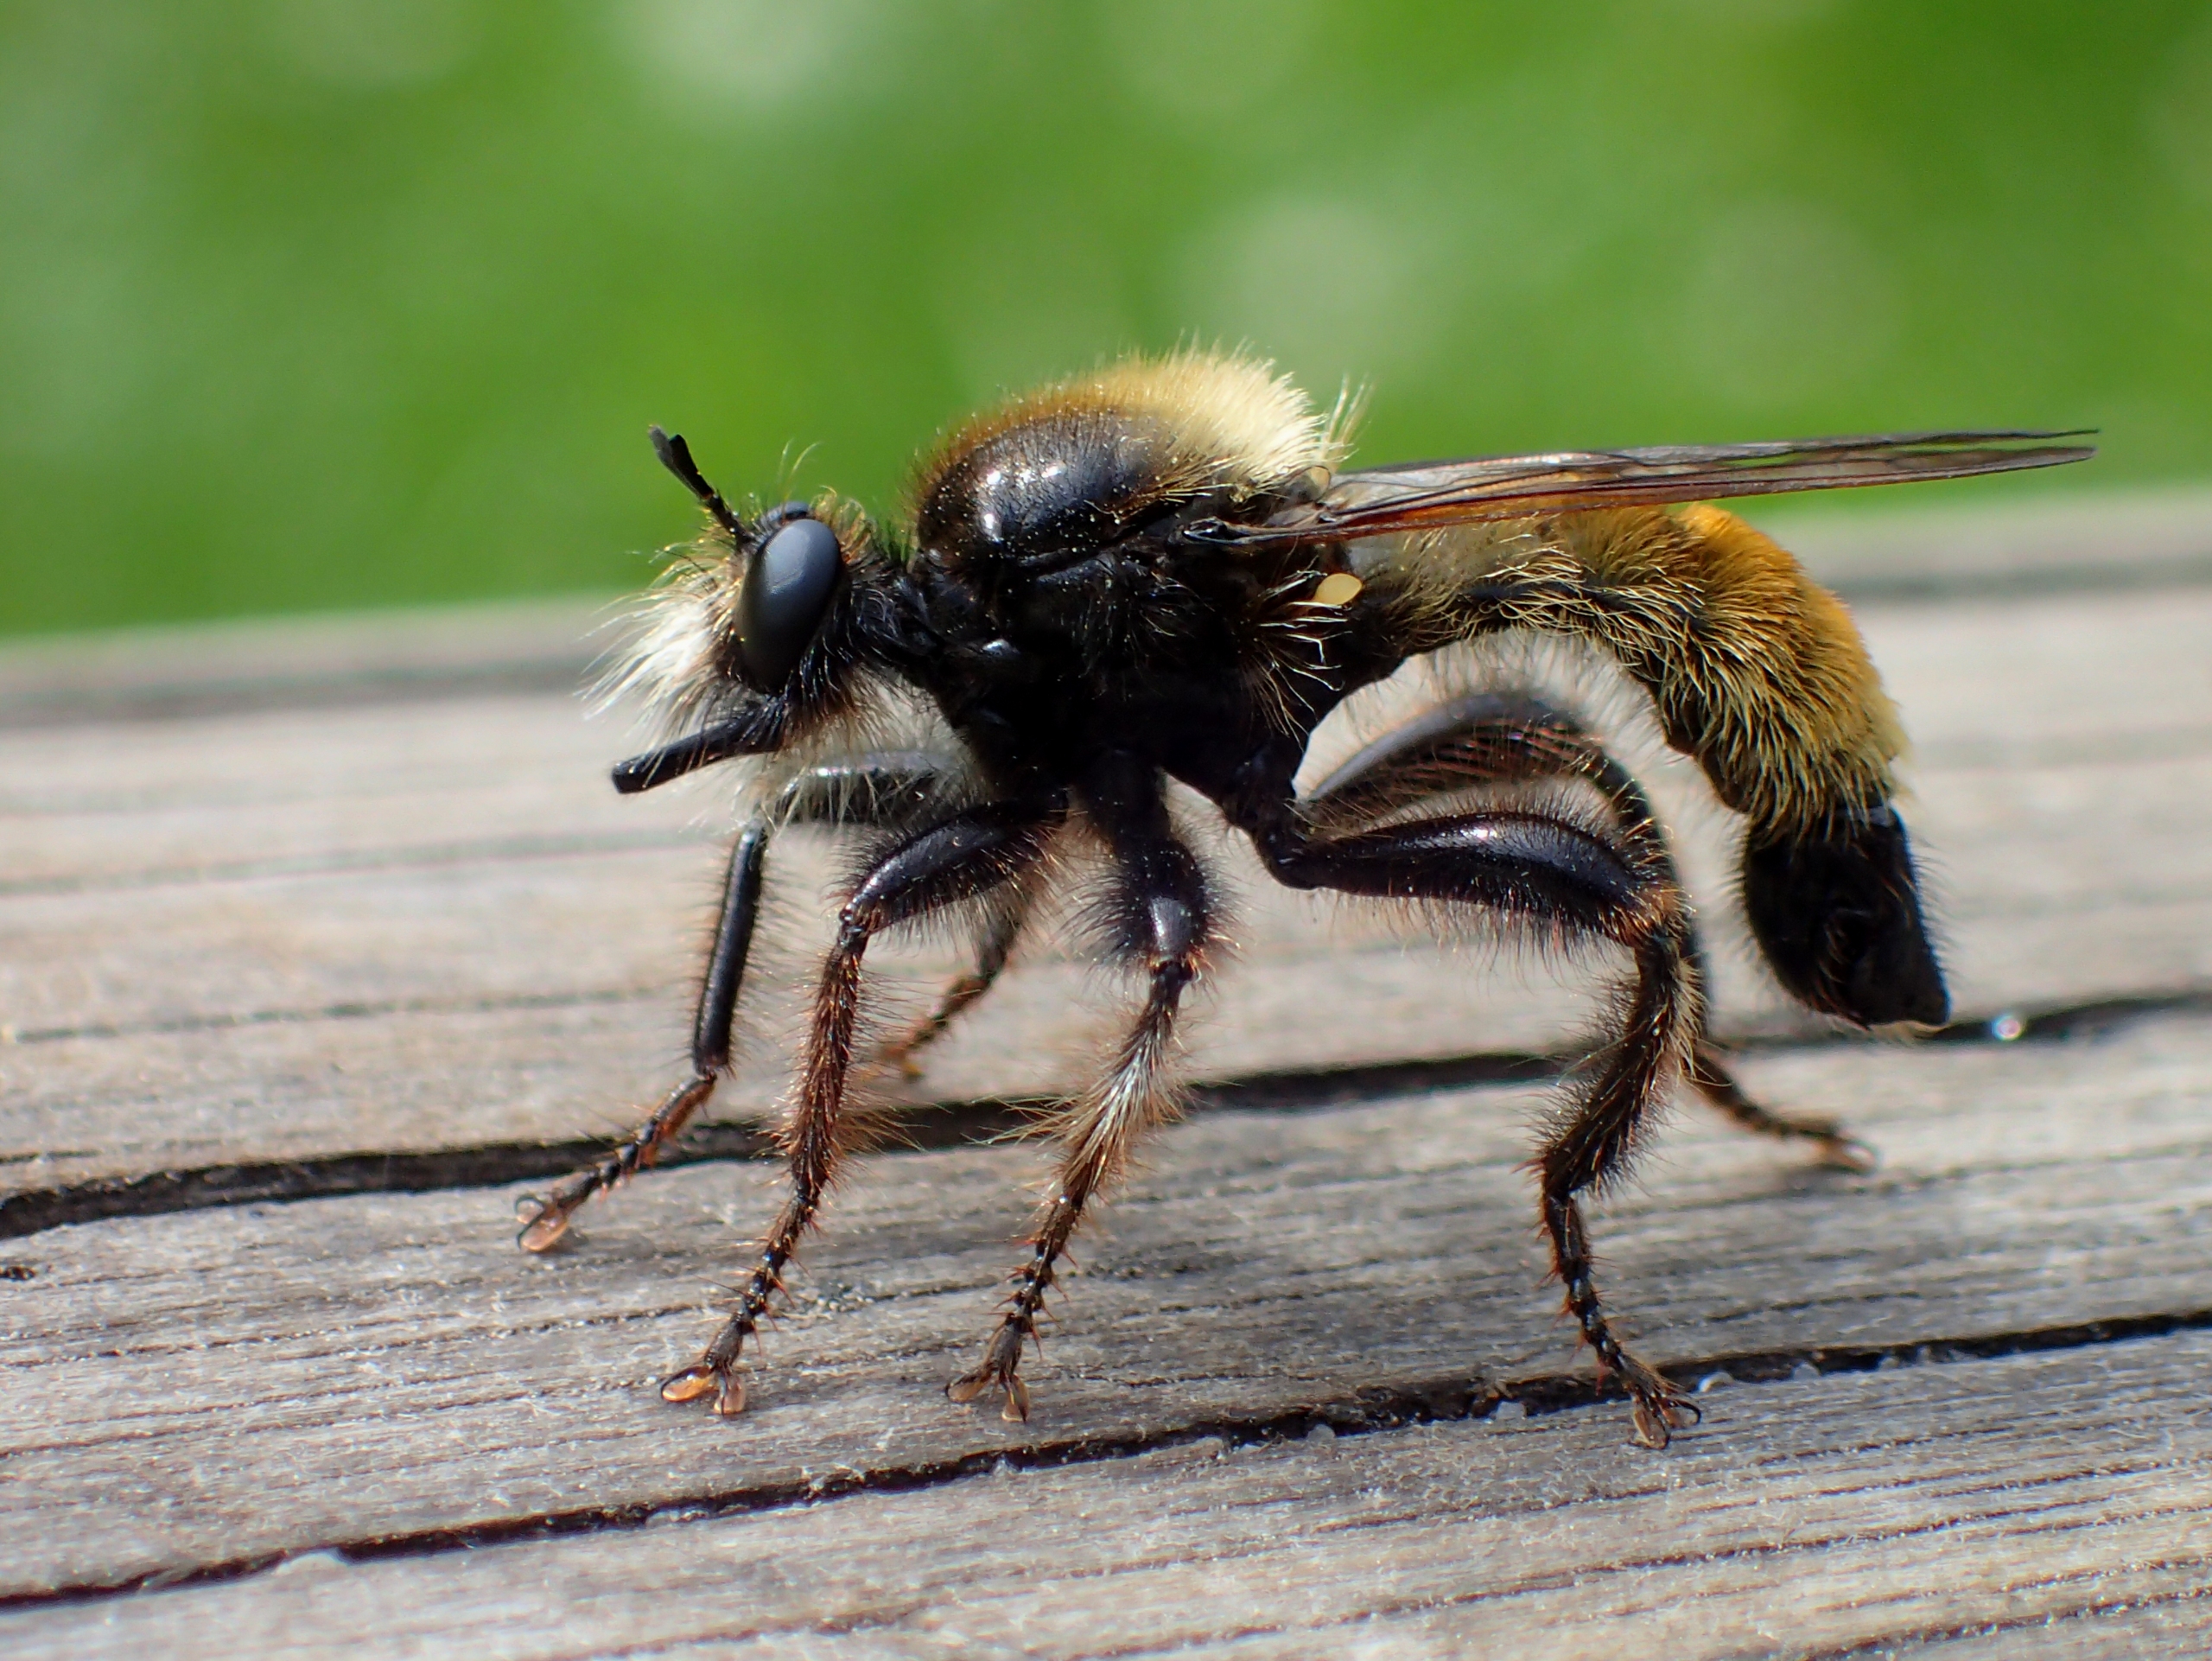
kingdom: Animalia
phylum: Arthropoda
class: Insecta
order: Diptera
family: Asilidae
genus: Laphria
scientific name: Laphria flava
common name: Gul vedrovflue
